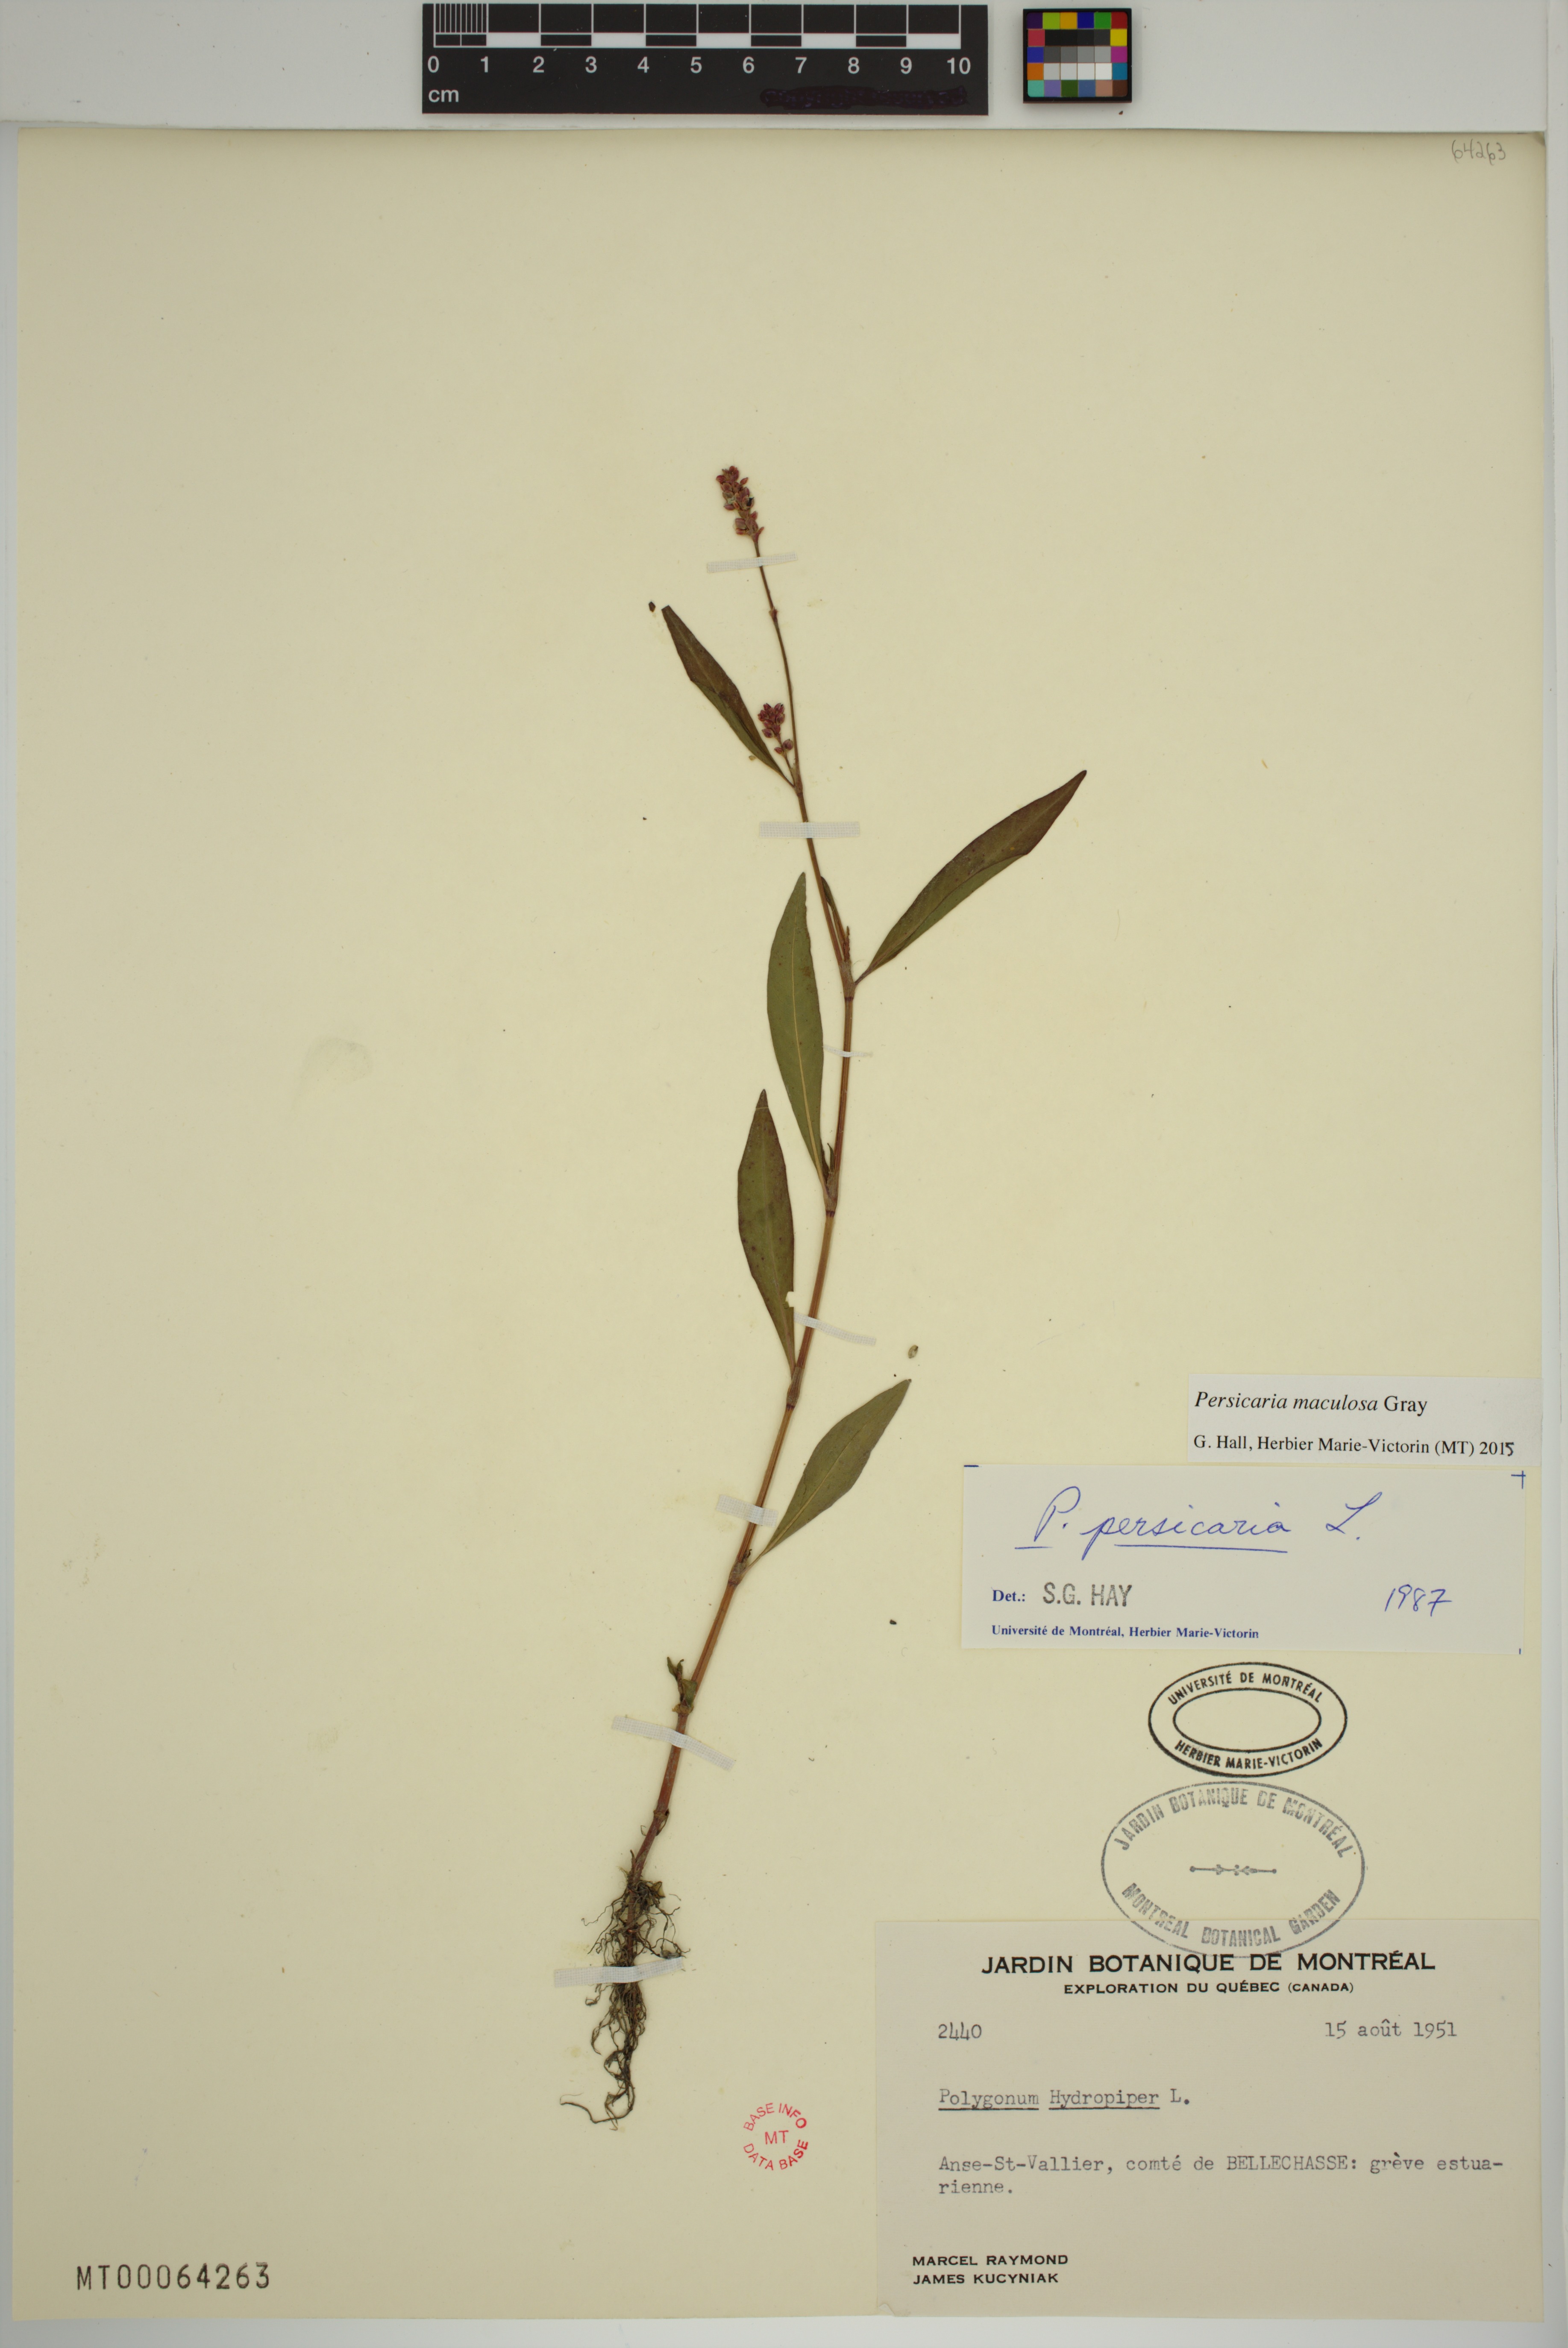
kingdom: Plantae
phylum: Tracheophyta
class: Magnoliopsida
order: Caryophyllales
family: Polygonaceae
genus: Persicaria
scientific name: Persicaria maculosa
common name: Redshank
